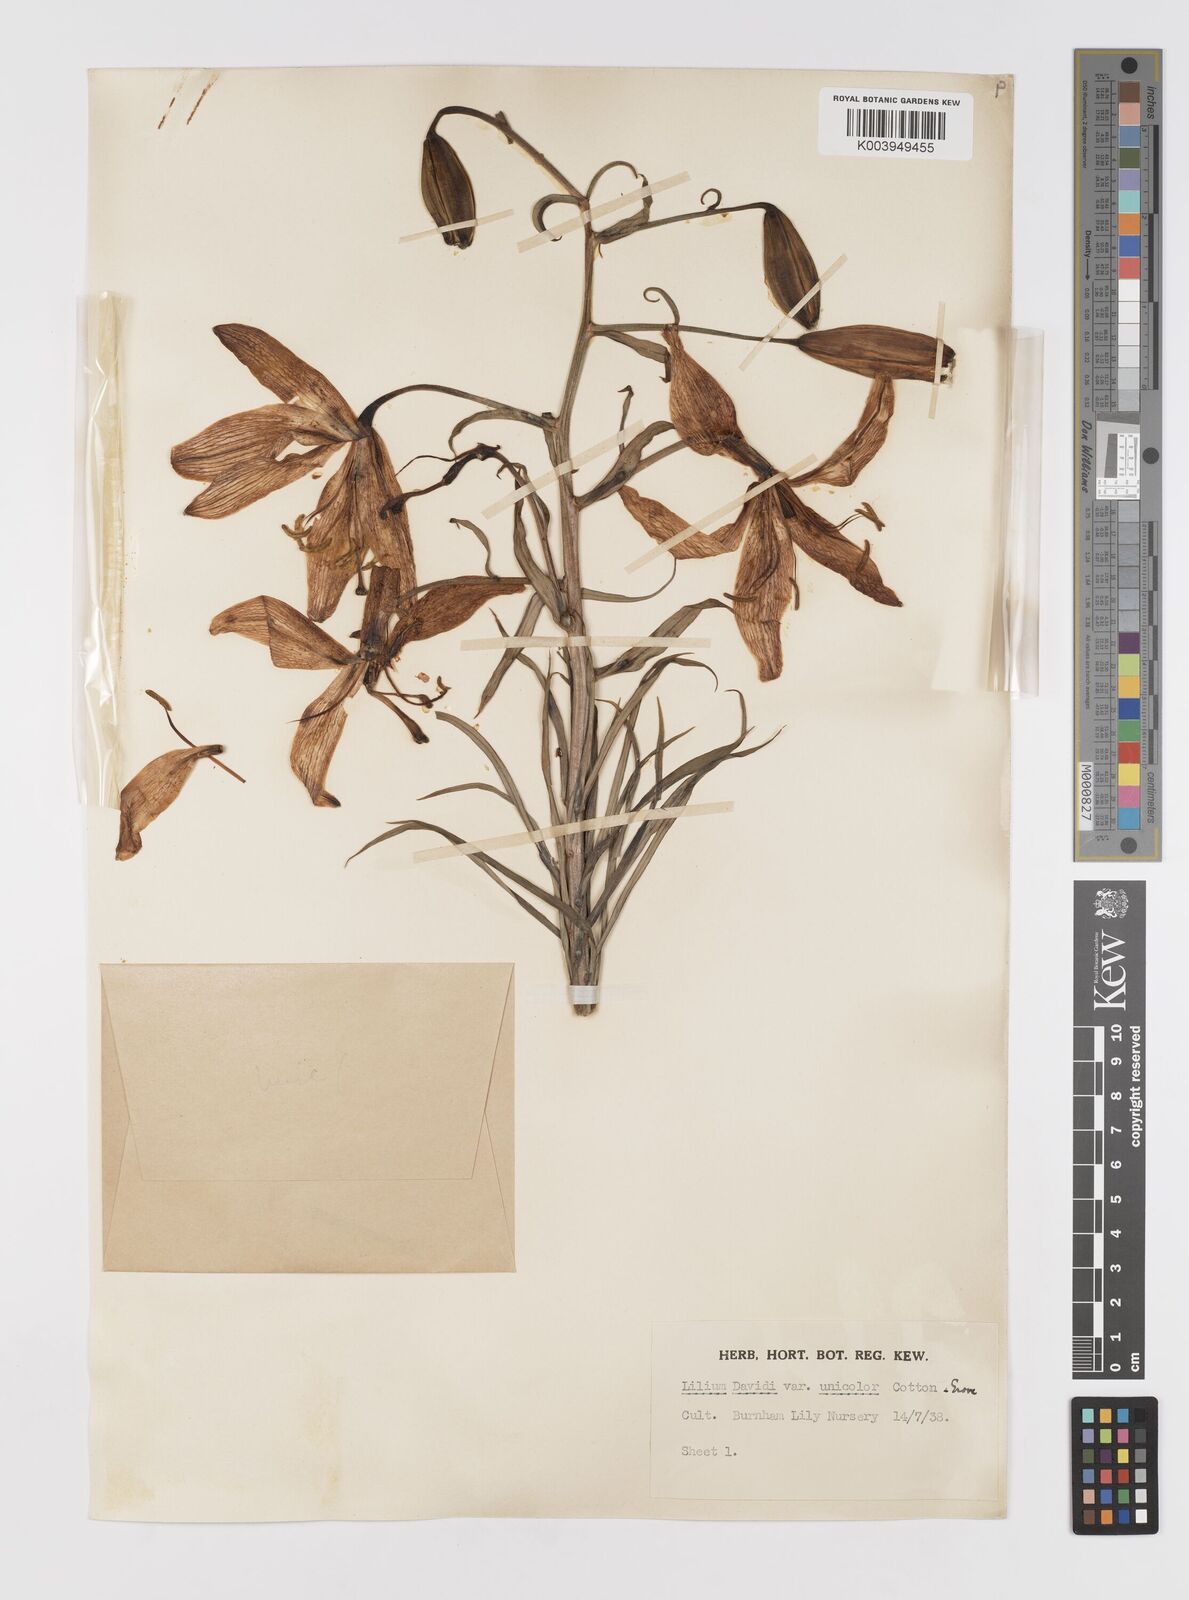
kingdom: Plantae
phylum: Tracheophyta
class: Liliopsida
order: Liliales
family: Liliaceae
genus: Lilium
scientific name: Lilium davidii
